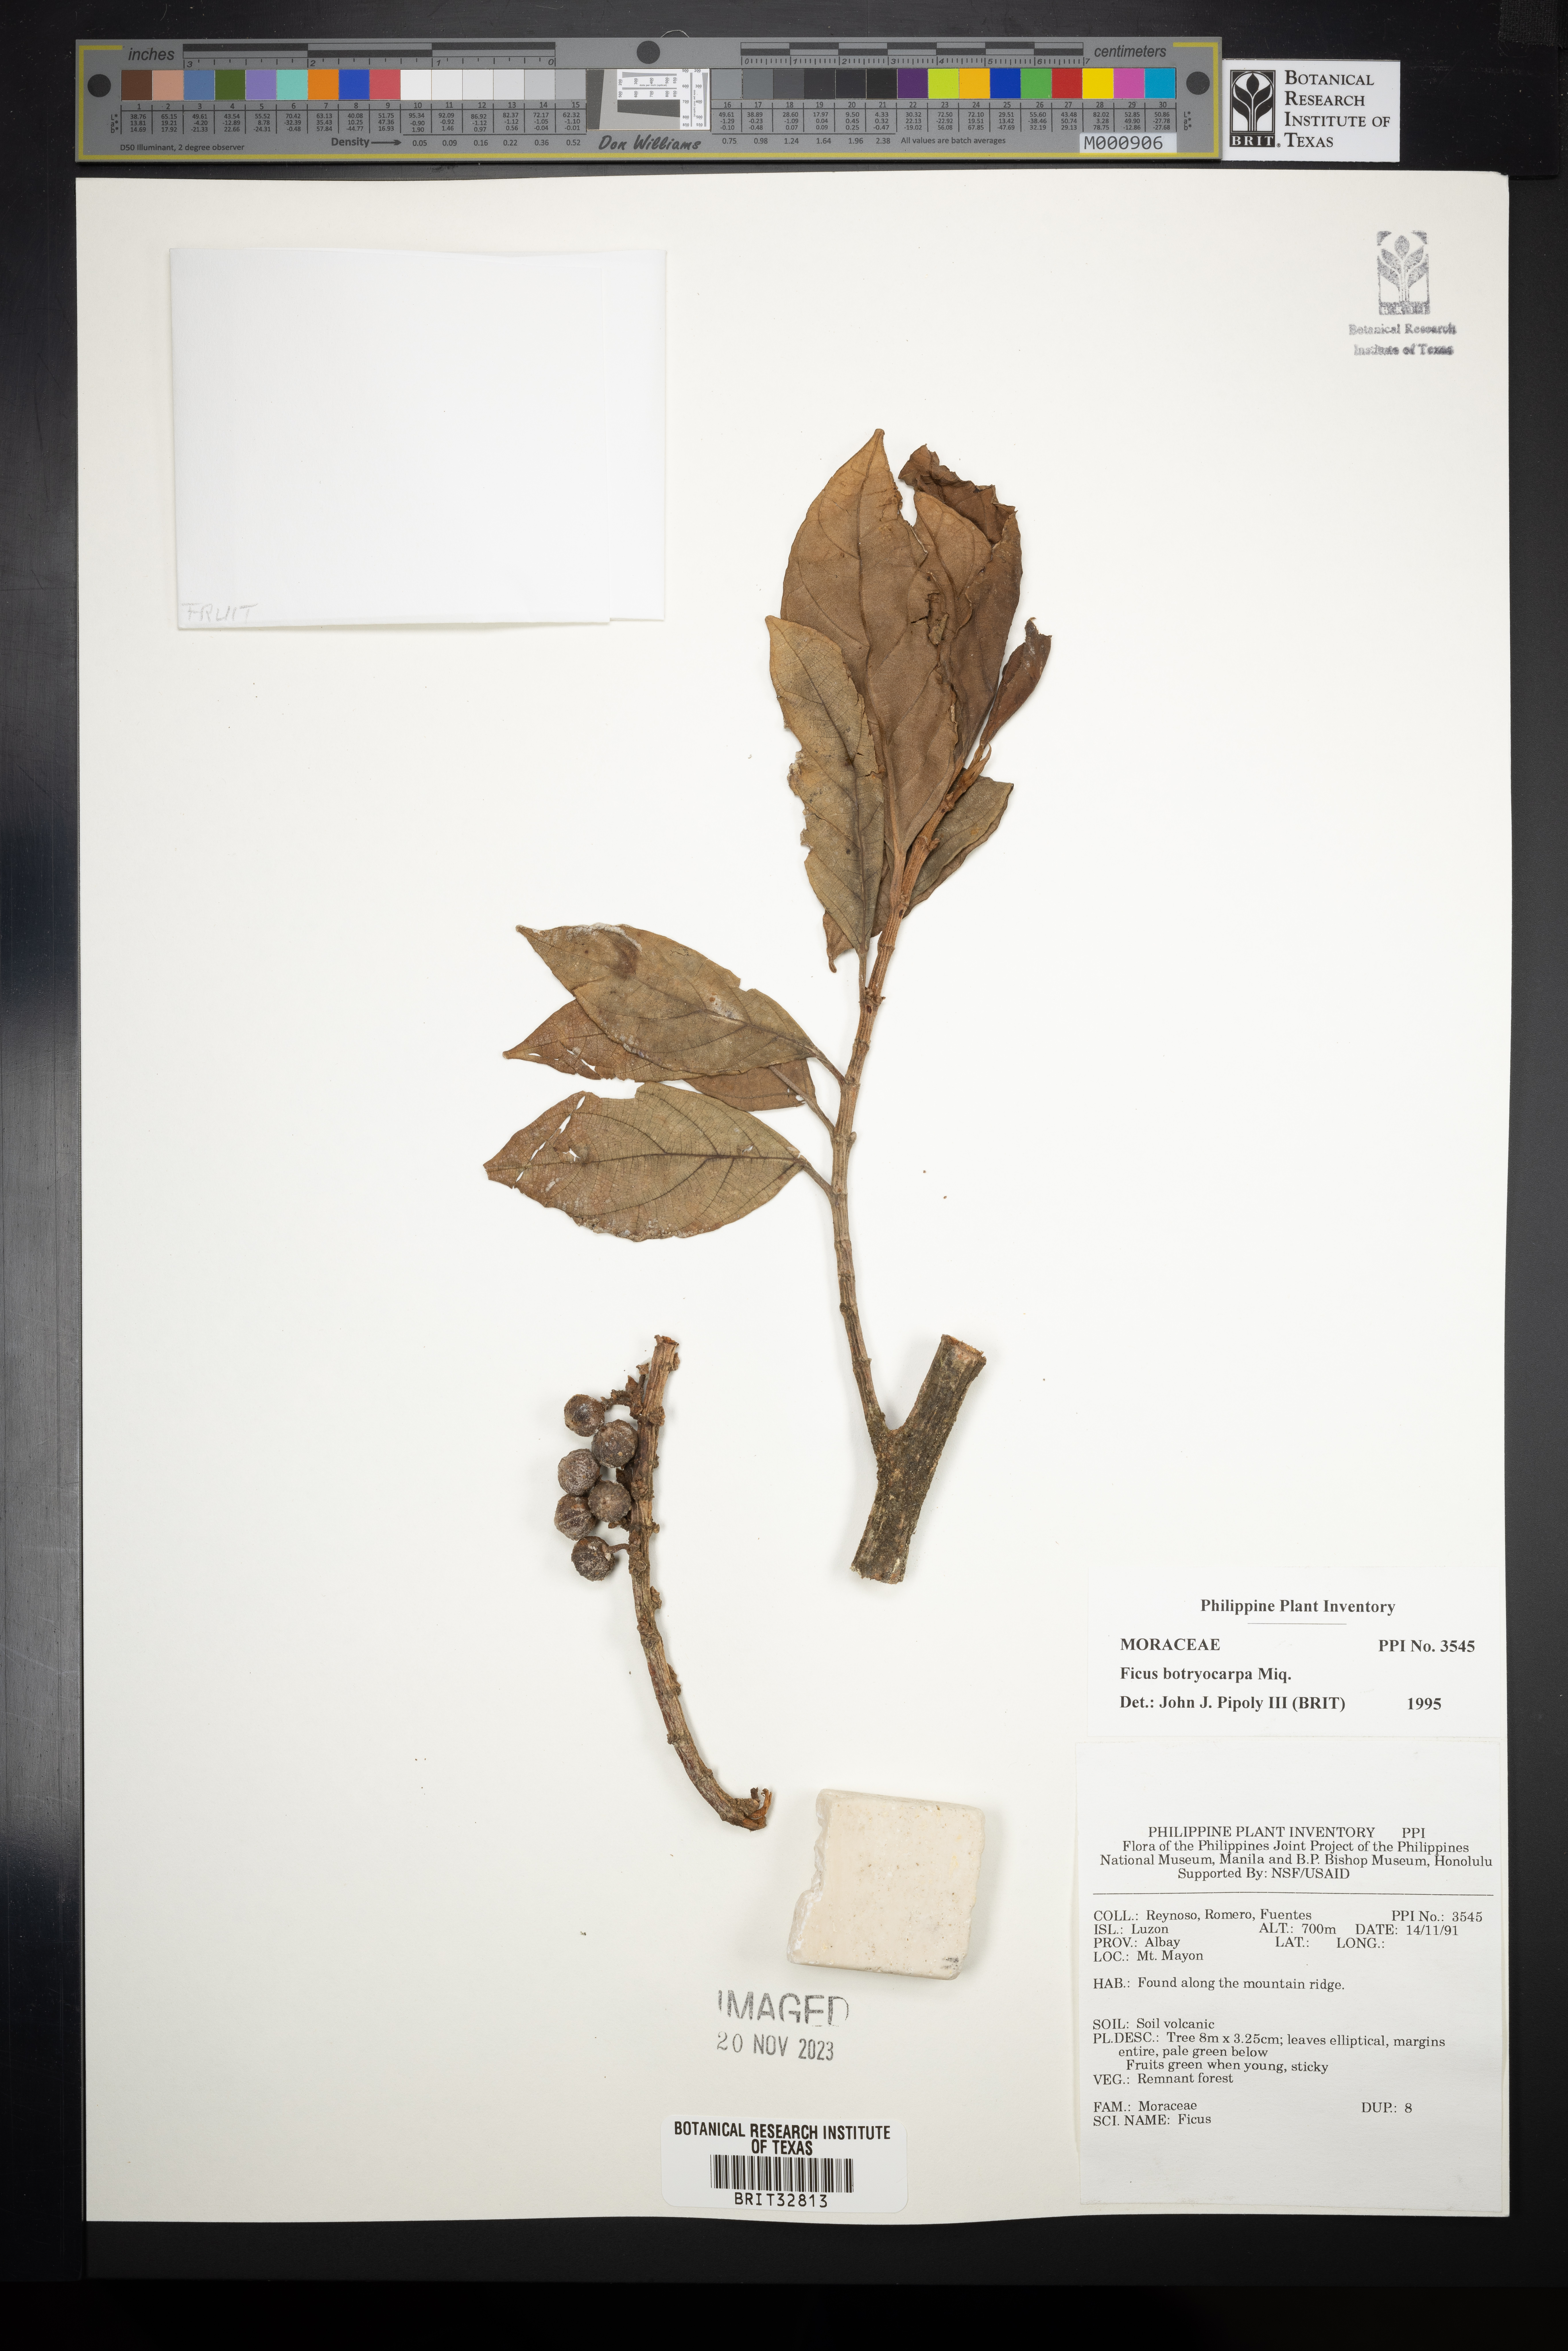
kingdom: Plantae
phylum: Tracheophyta
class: Magnoliopsida
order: Rosales
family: Moraceae
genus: Ficus
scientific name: Ficus botryocarpa
